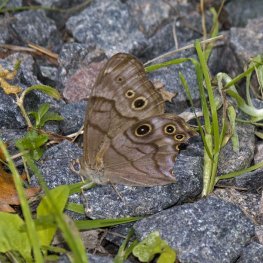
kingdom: Animalia
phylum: Arthropoda
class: Insecta
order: Lepidoptera
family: Nymphalidae
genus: Lethe
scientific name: Lethe anthedon
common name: Northern Pearly-Eye
